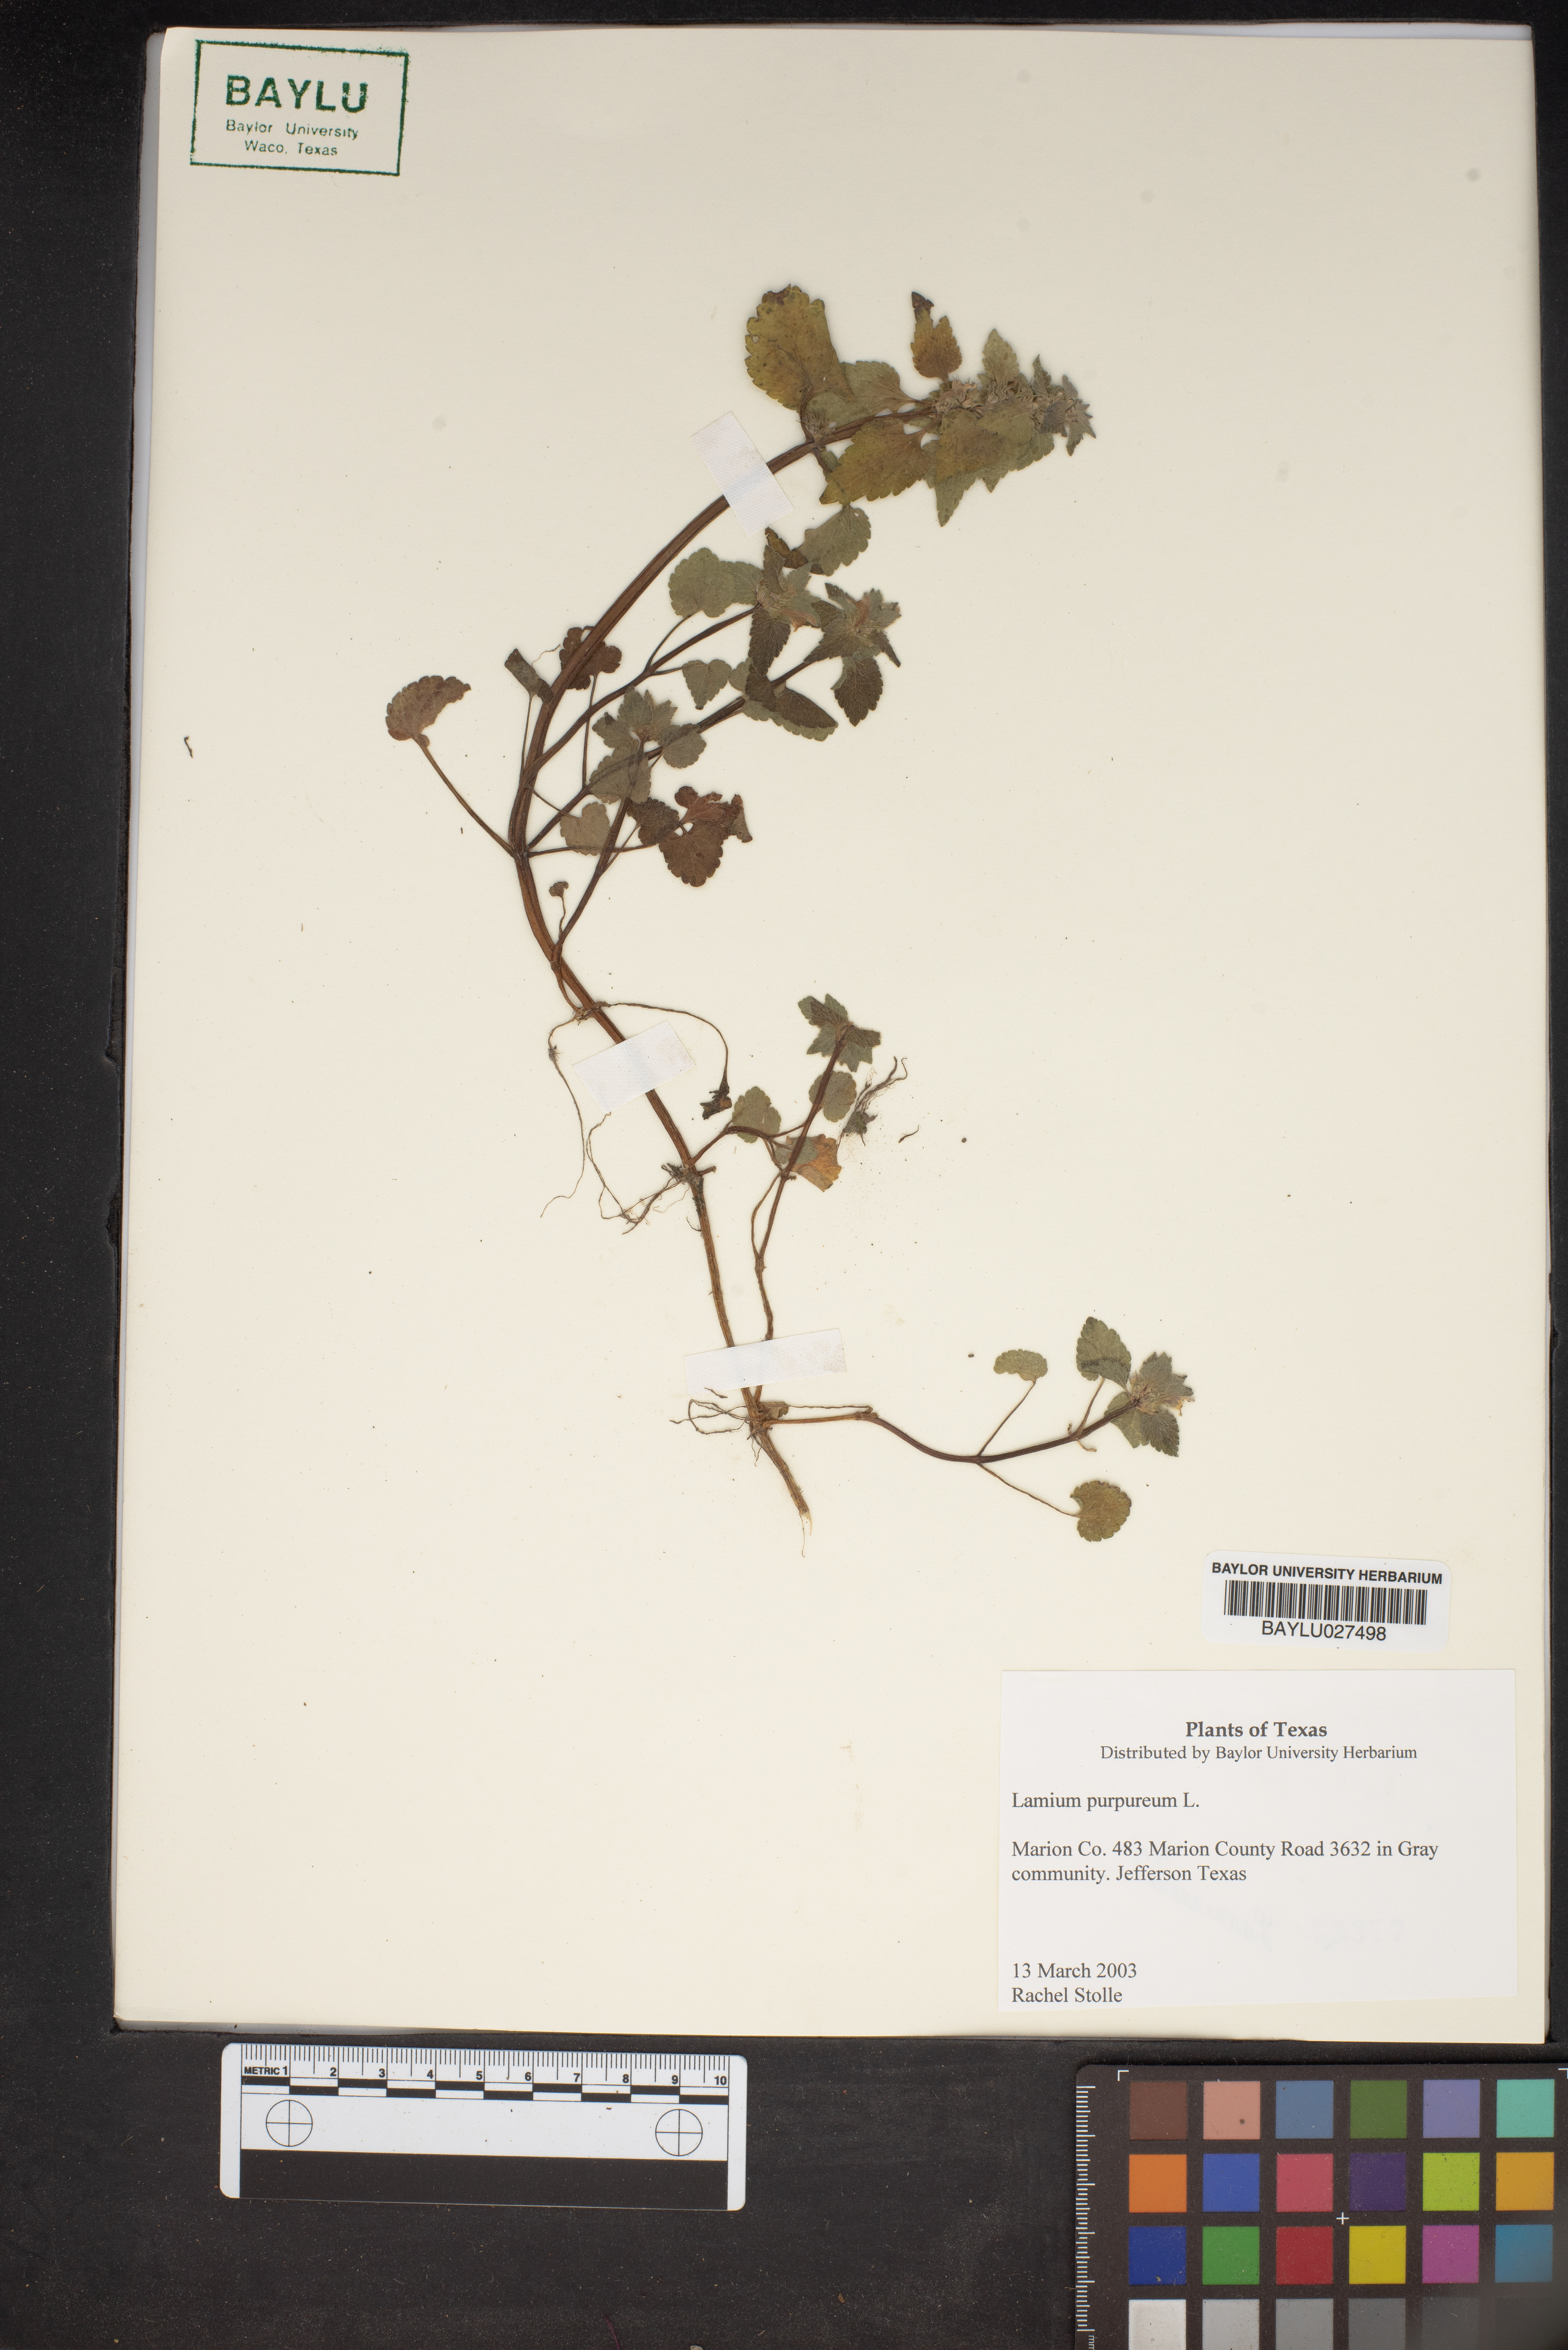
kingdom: Plantae
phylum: Tracheophyta
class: Magnoliopsida
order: Lamiales
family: Lamiaceae
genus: Lamium
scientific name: Lamium purpureum
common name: Red dead-nettle
